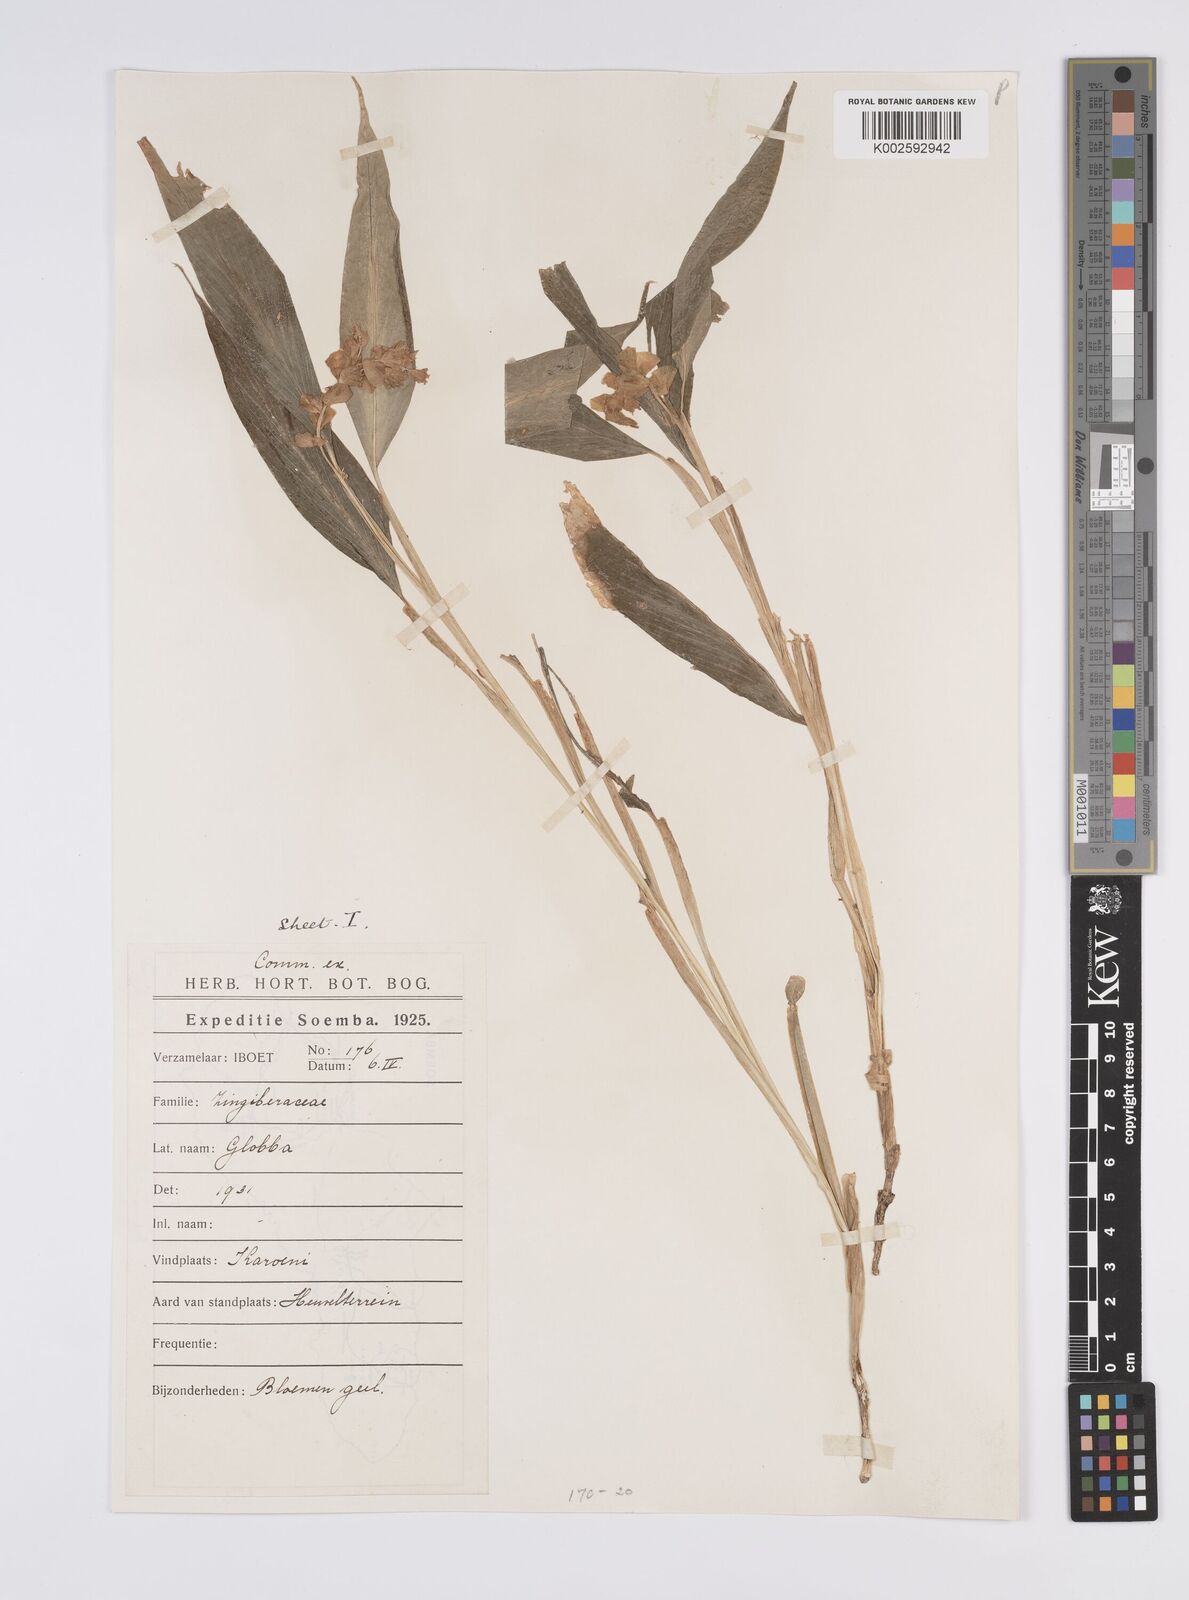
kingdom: Plantae
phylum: Tracheophyta
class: Liliopsida
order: Zingiberales
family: Zingiberaceae
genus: Globba
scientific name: Globba marantina
